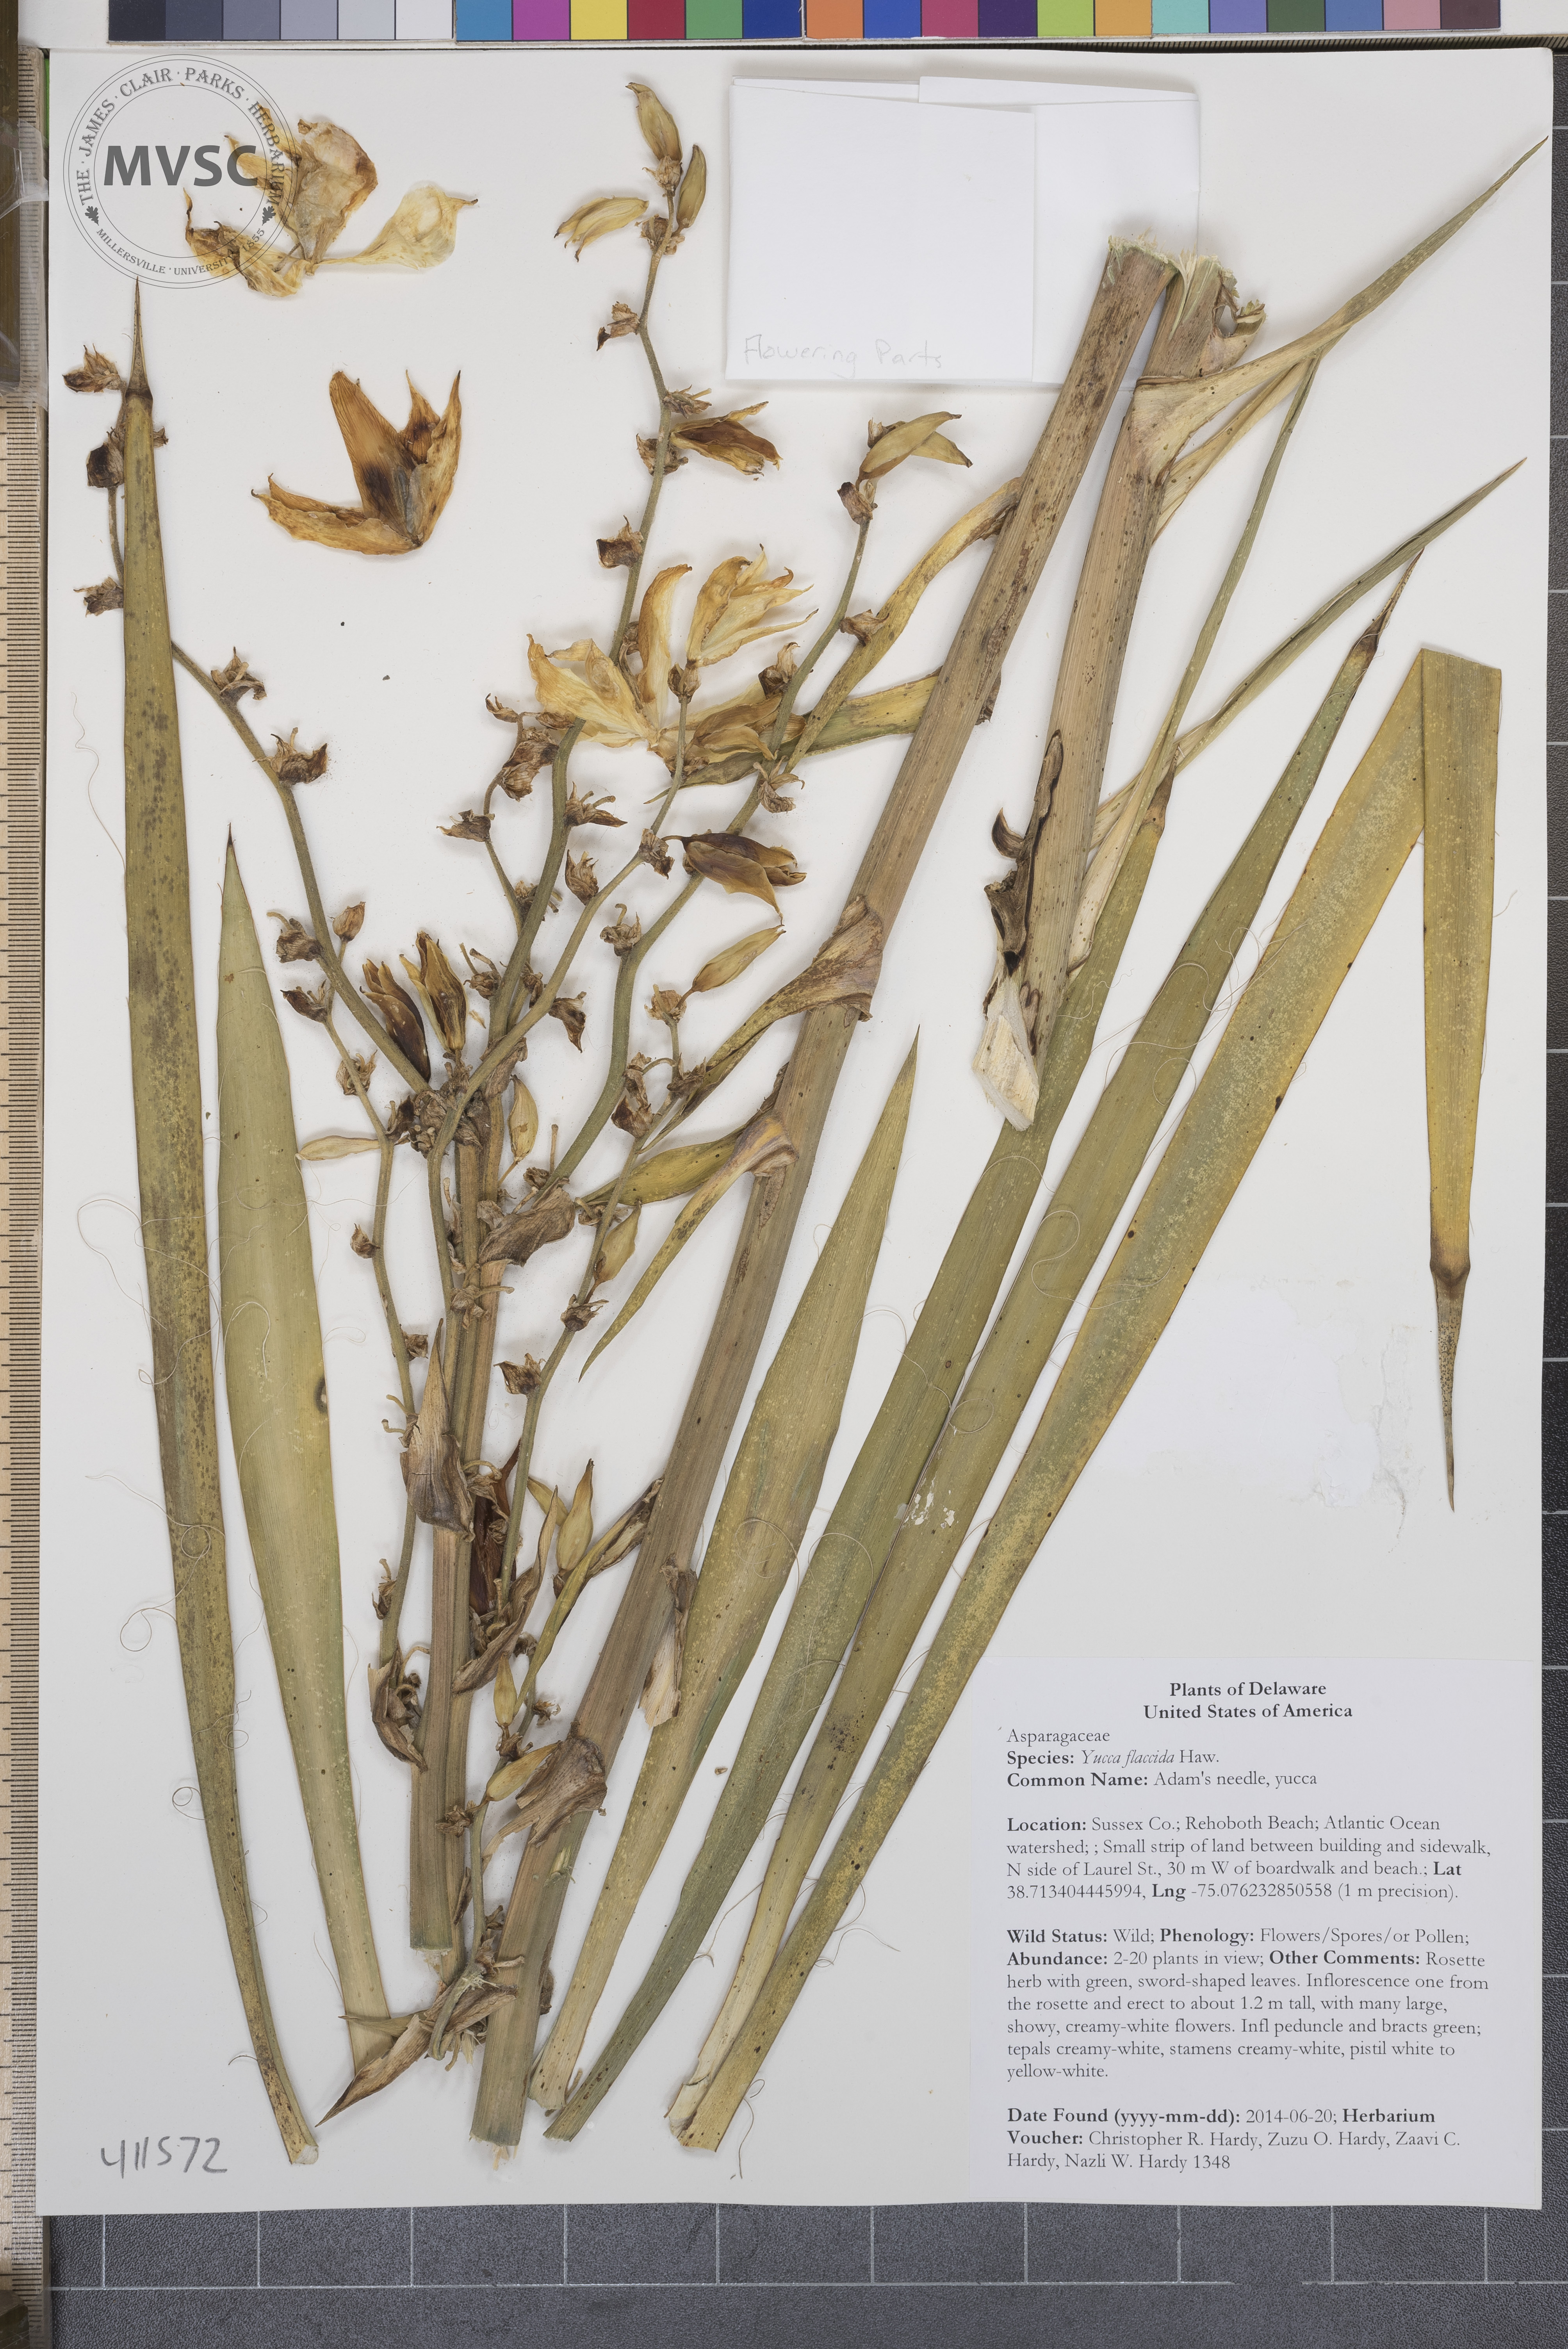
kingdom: Plantae
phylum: Tracheophyta
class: Liliopsida
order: Asparagales
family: Asparagaceae
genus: Yucca
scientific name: Yucca flaccida
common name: Adam's needle
